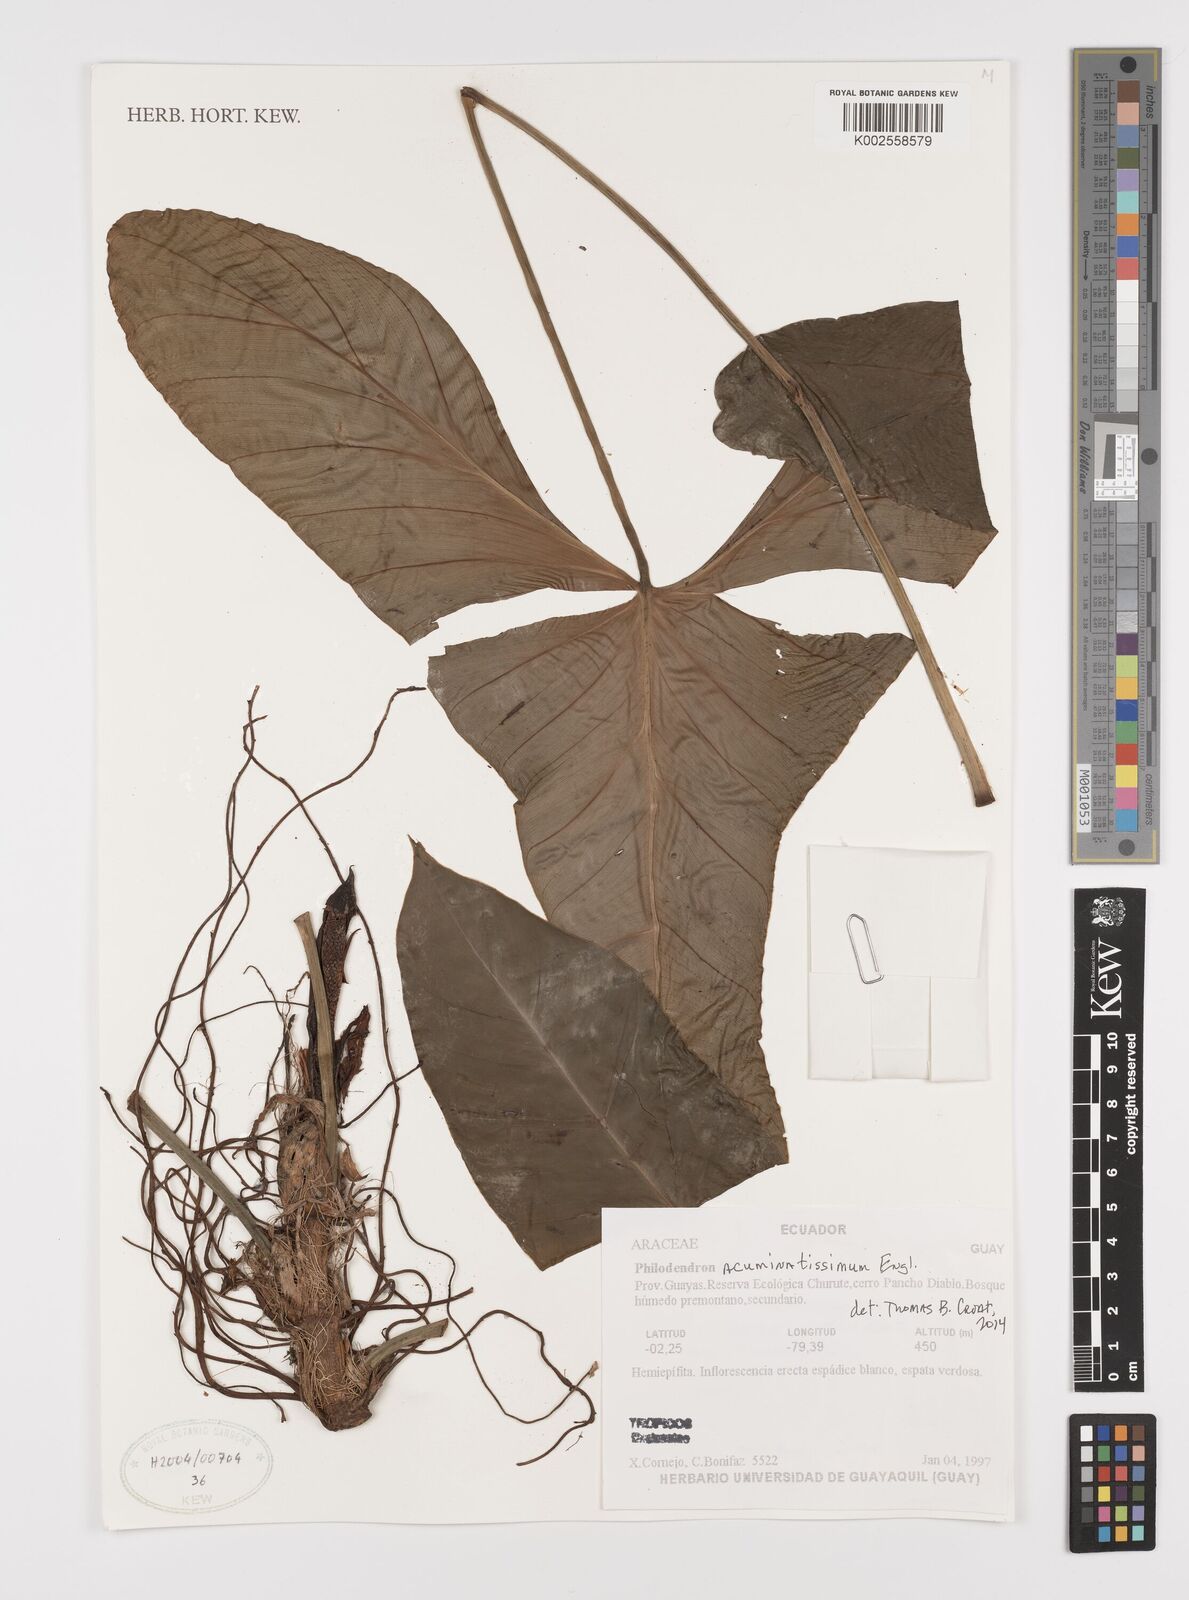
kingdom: Plantae
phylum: Tracheophyta
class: Liliopsida
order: Alismatales
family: Araceae
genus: Philodendron
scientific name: Philodendron acuminatissimum
